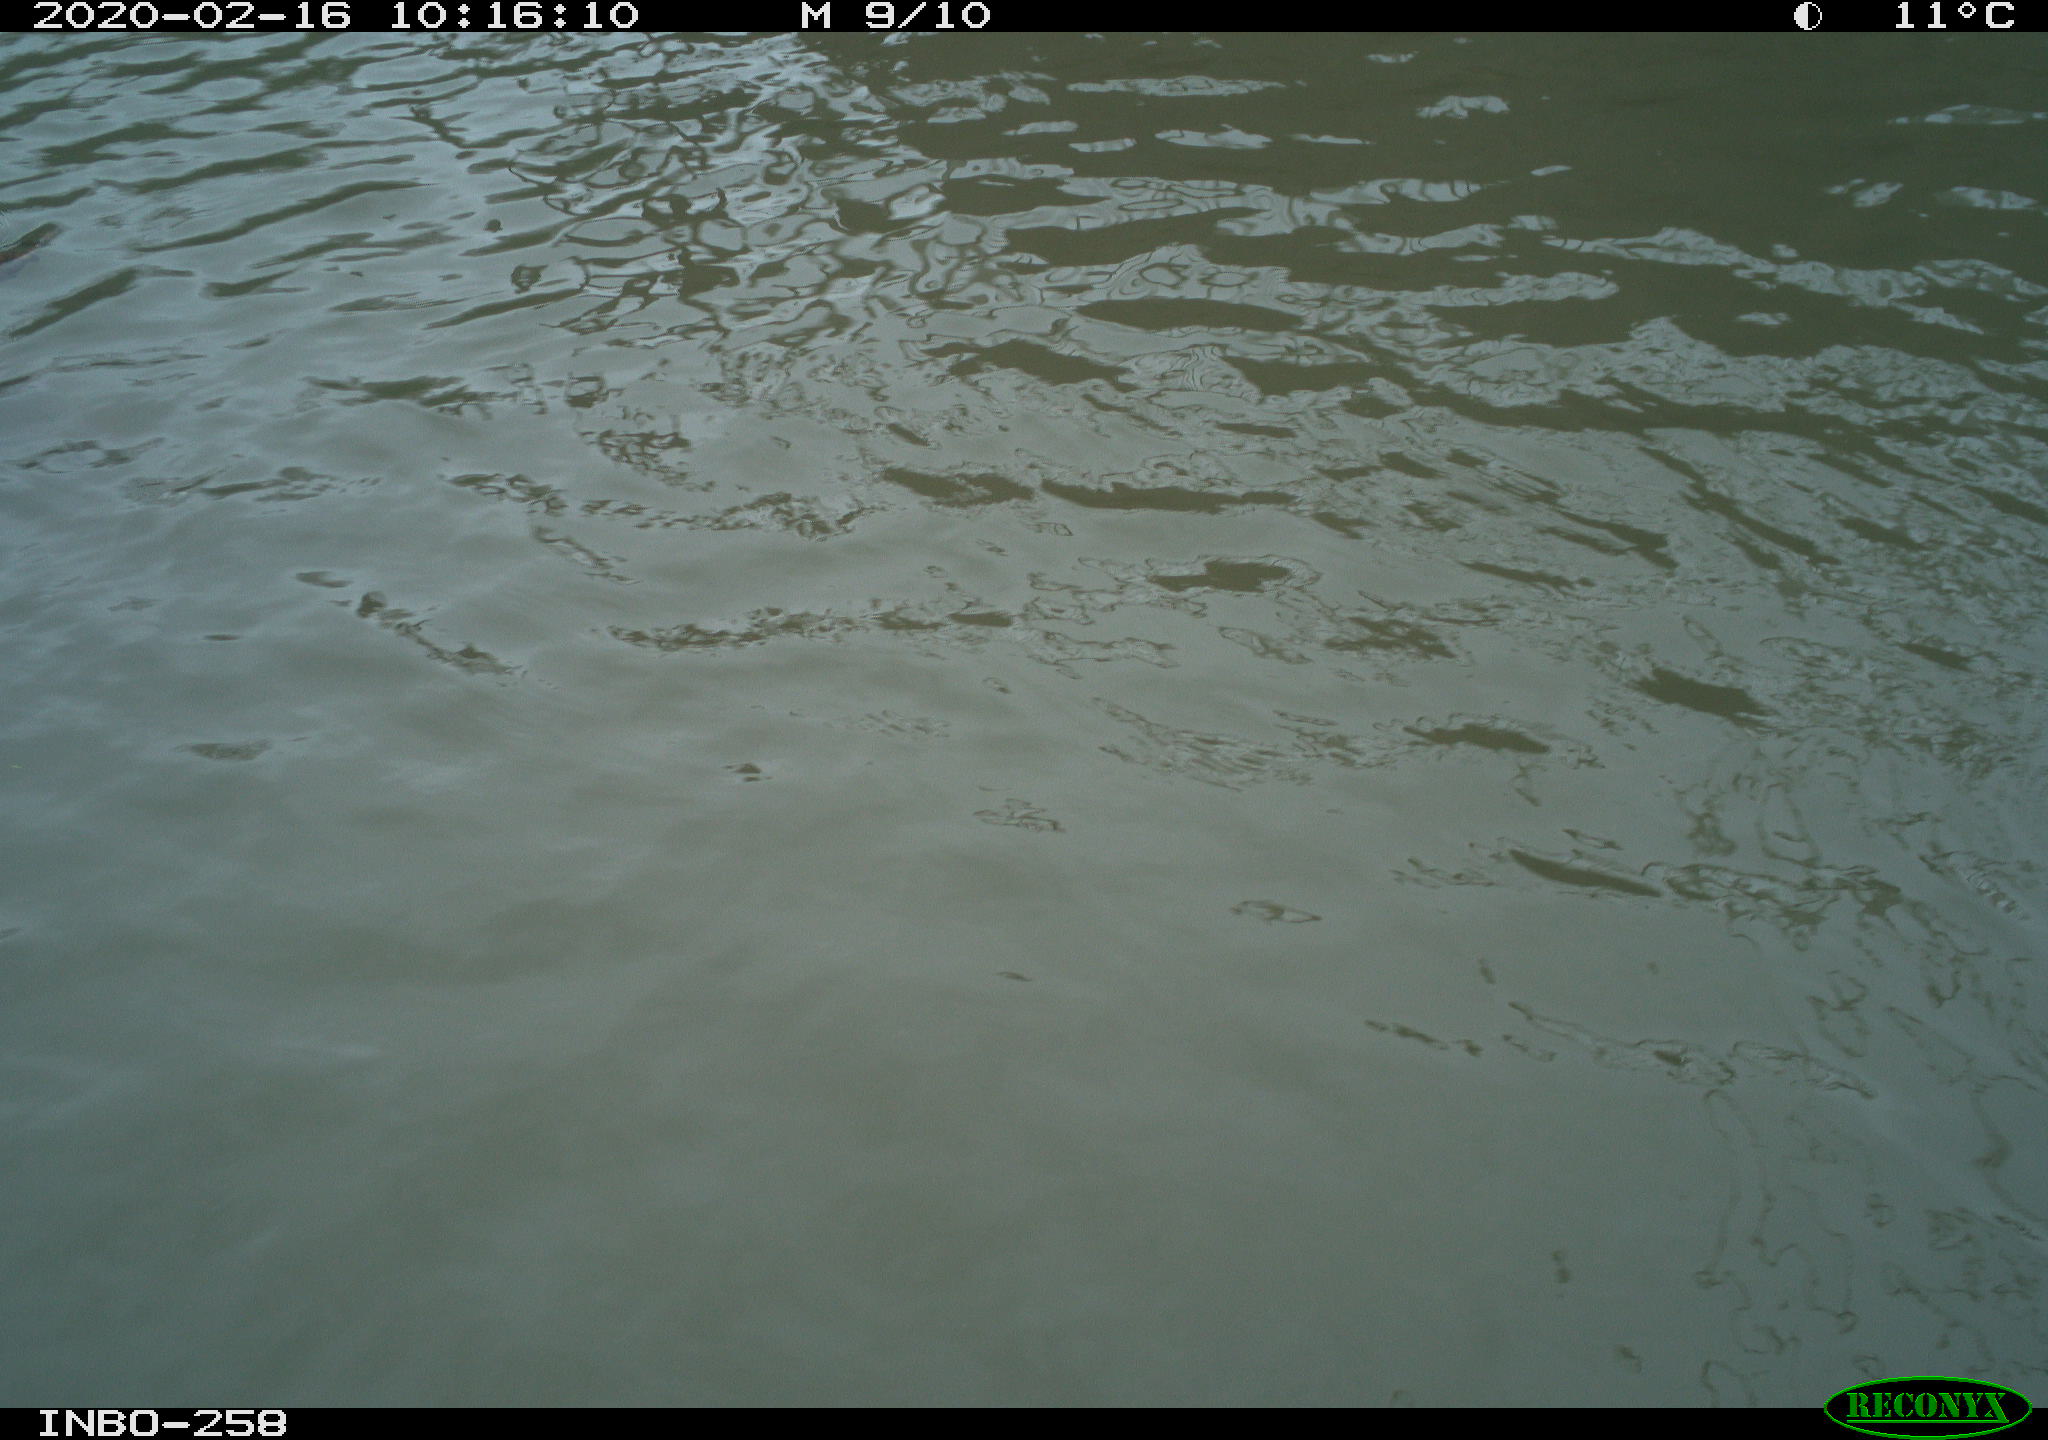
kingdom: Animalia
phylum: Chordata
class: Aves
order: Anseriformes
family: Anatidae
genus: Anas
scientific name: Anas platyrhynchos
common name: Mallard
